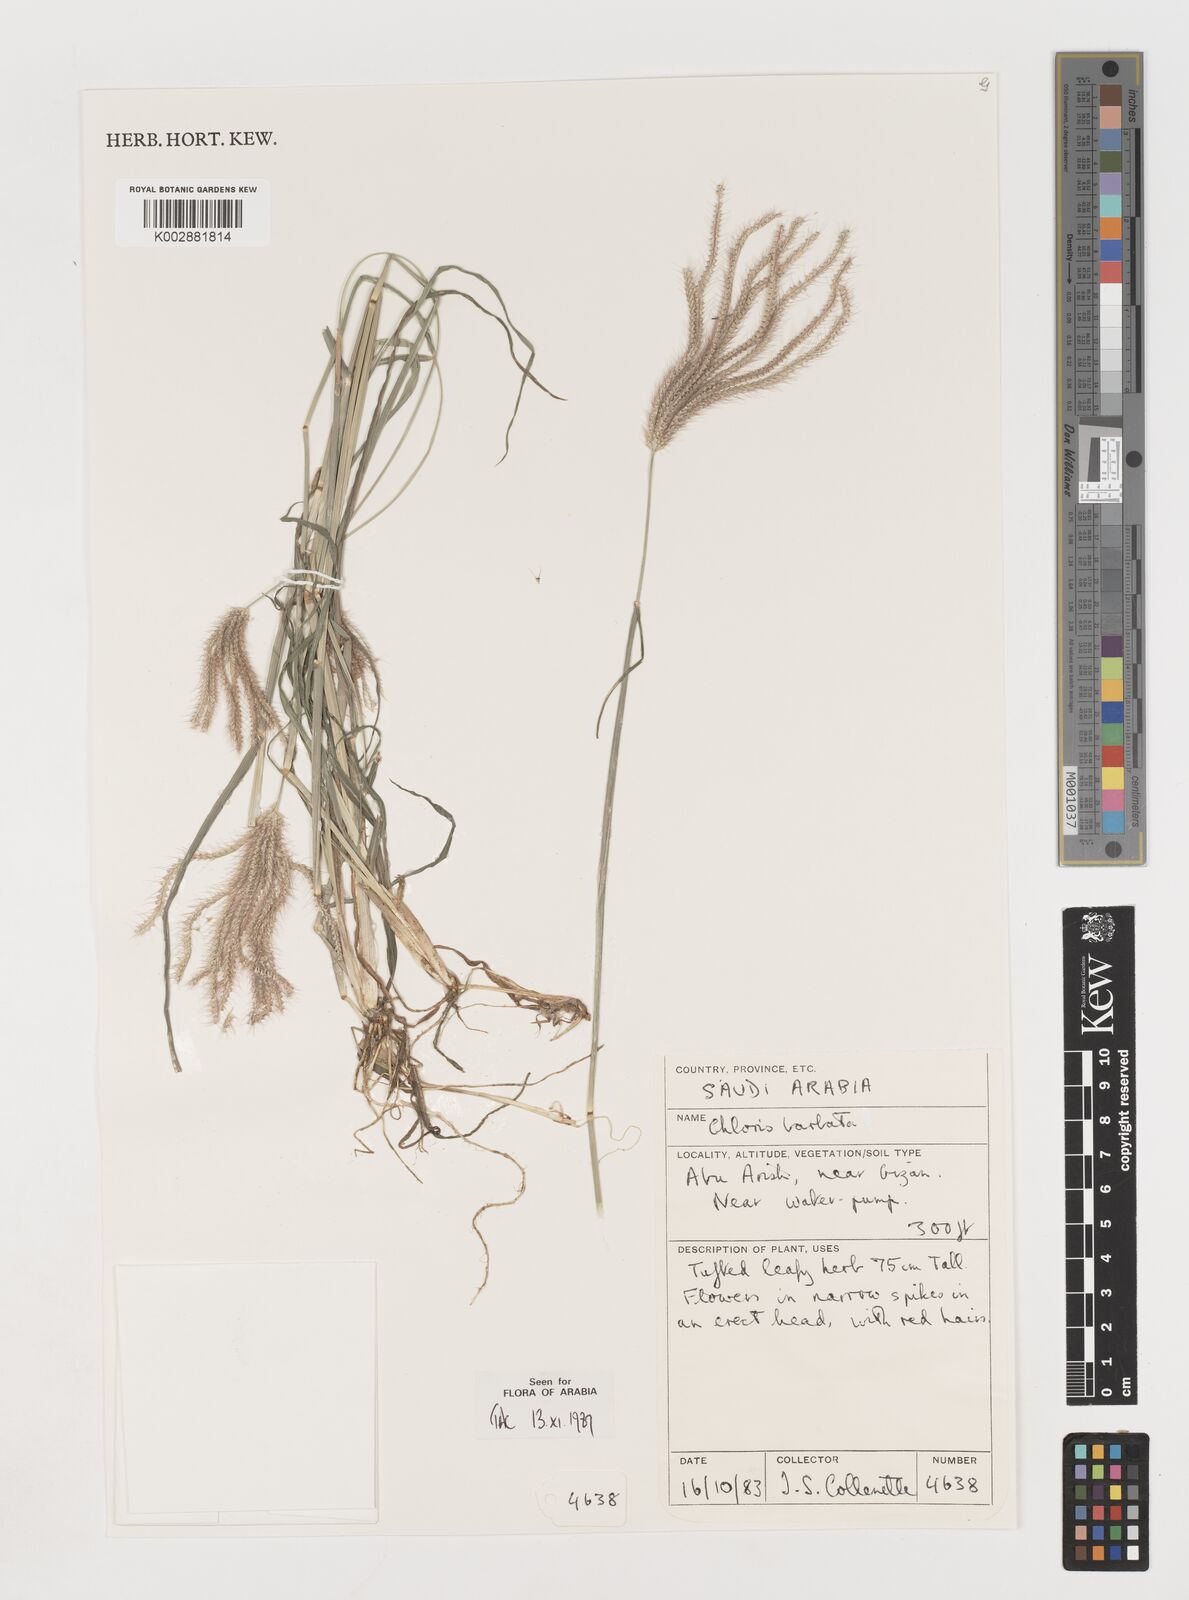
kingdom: Plantae
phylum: Tracheophyta
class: Liliopsida
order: Poales
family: Poaceae
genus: Chloris
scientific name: Chloris barbata
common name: Swollen fingergrass
